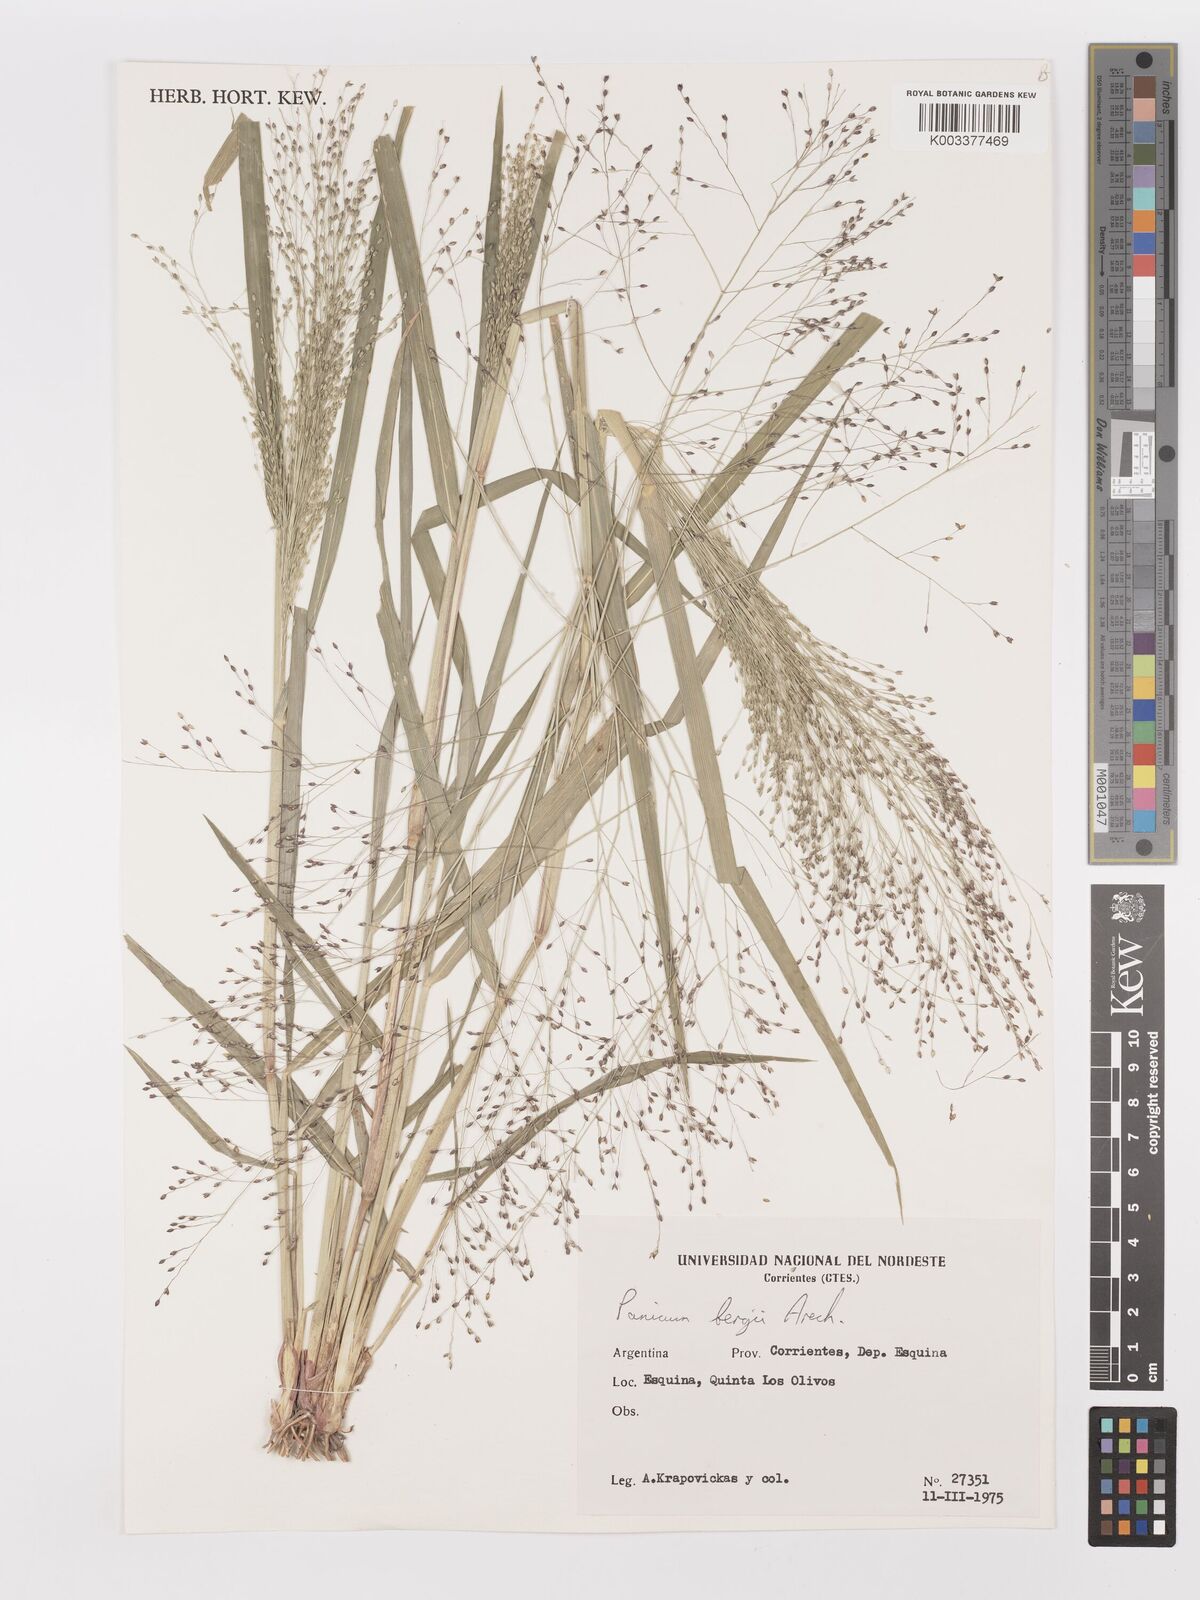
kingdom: Plantae
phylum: Tracheophyta
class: Liliopsida
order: Poales
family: Poaceae
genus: Panicum
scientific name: Panicum bergii
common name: Berg's panicgrass
